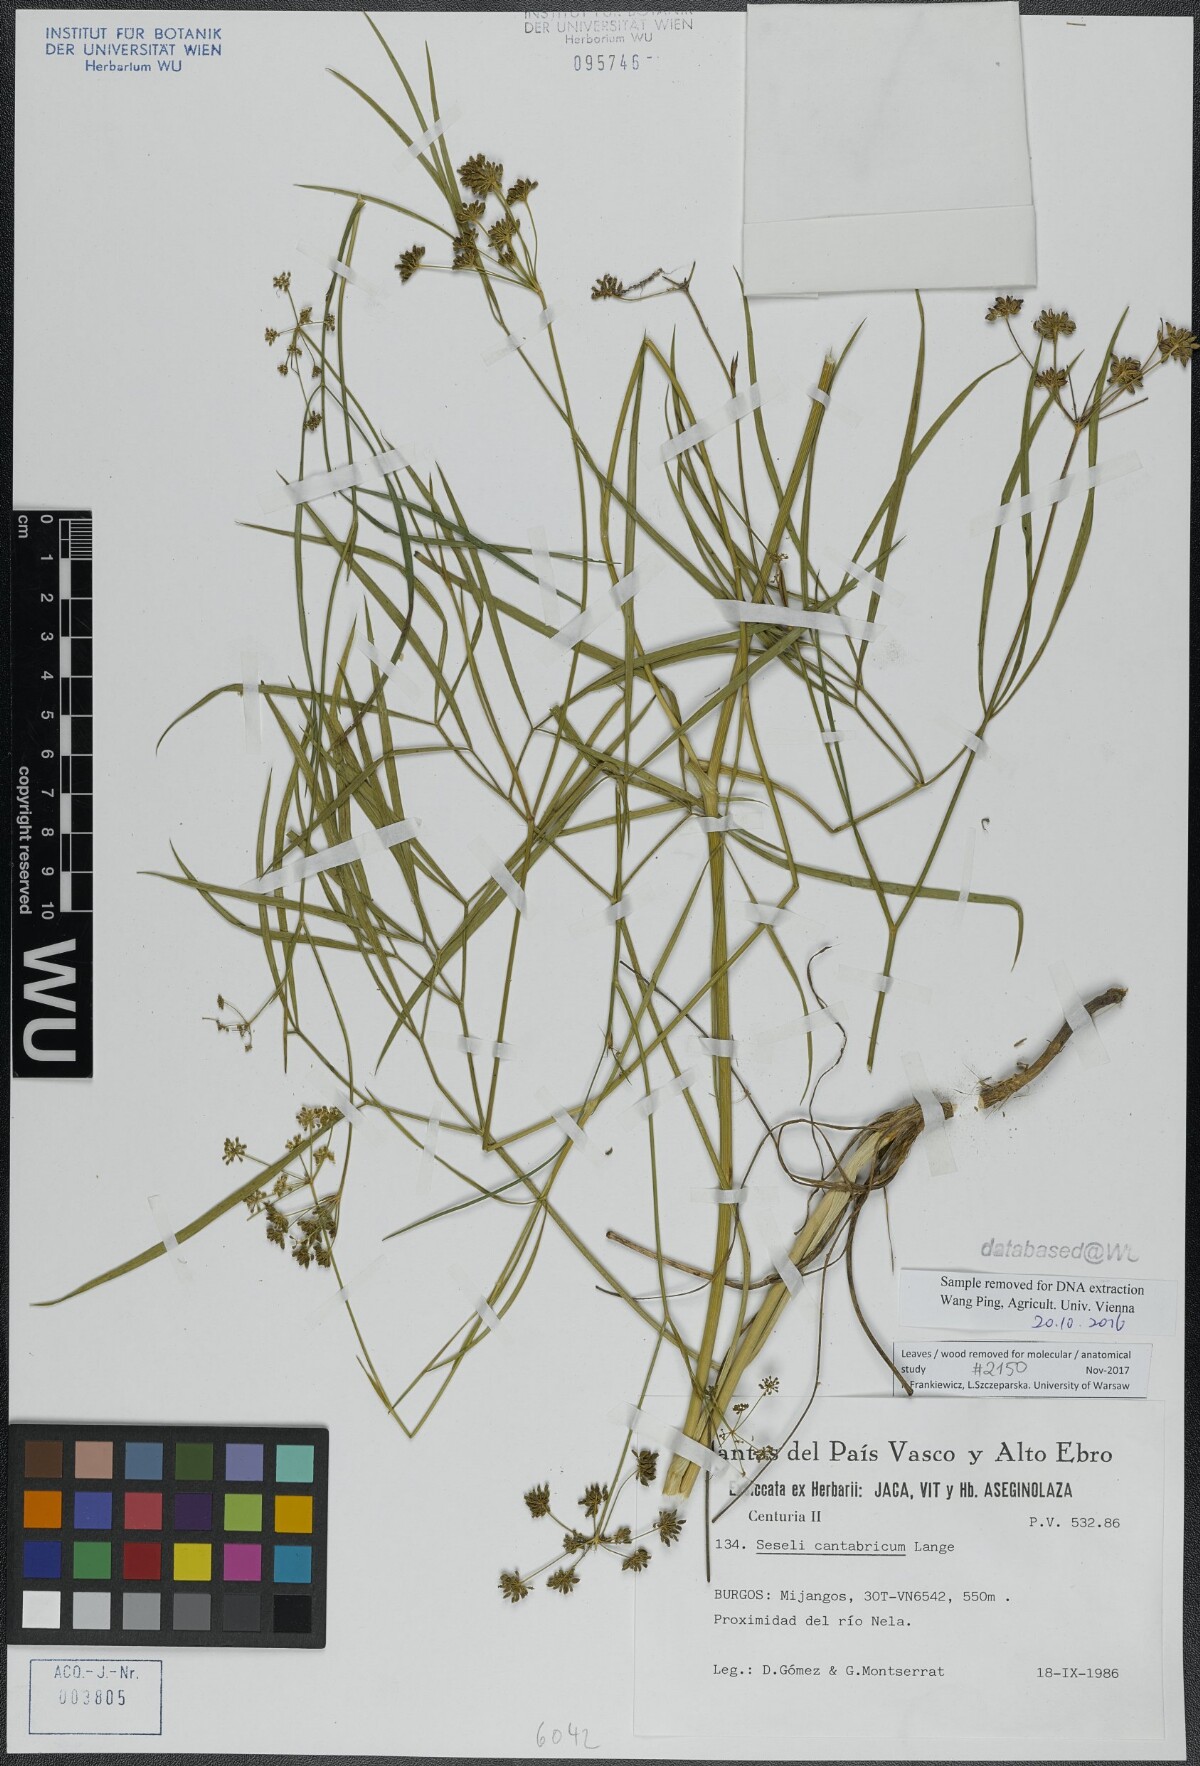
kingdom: Plantae
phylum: Tracheophyta
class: Magnoliopsida
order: Apiales
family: Apiaceae
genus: Seseli
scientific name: Seseli cantabricum
